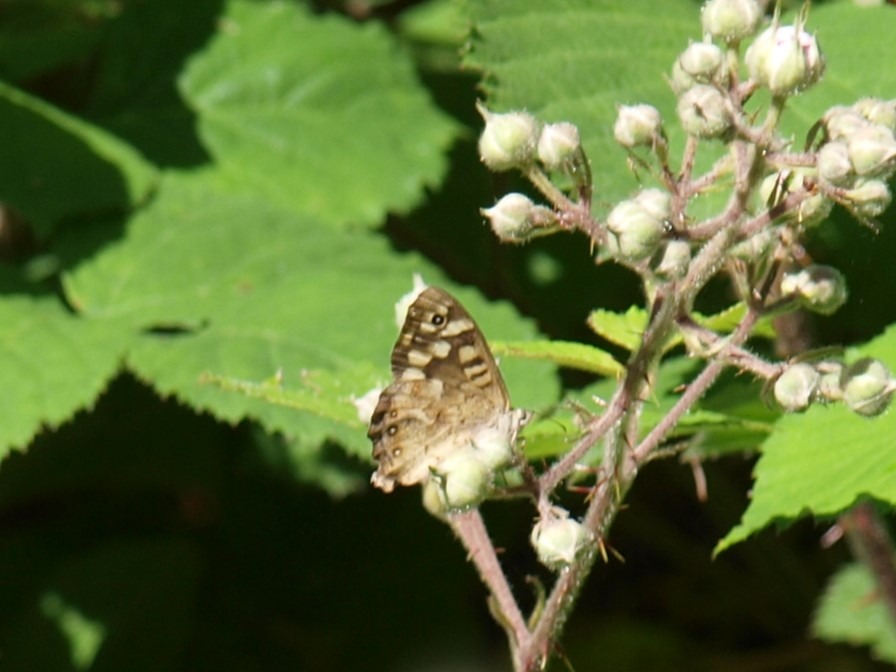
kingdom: Animalia
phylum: Arthropoda
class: Insecta
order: Lepidoptera
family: Nymphalidae
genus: Pararge
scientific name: Pararge aegeria
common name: Skovrandøje
